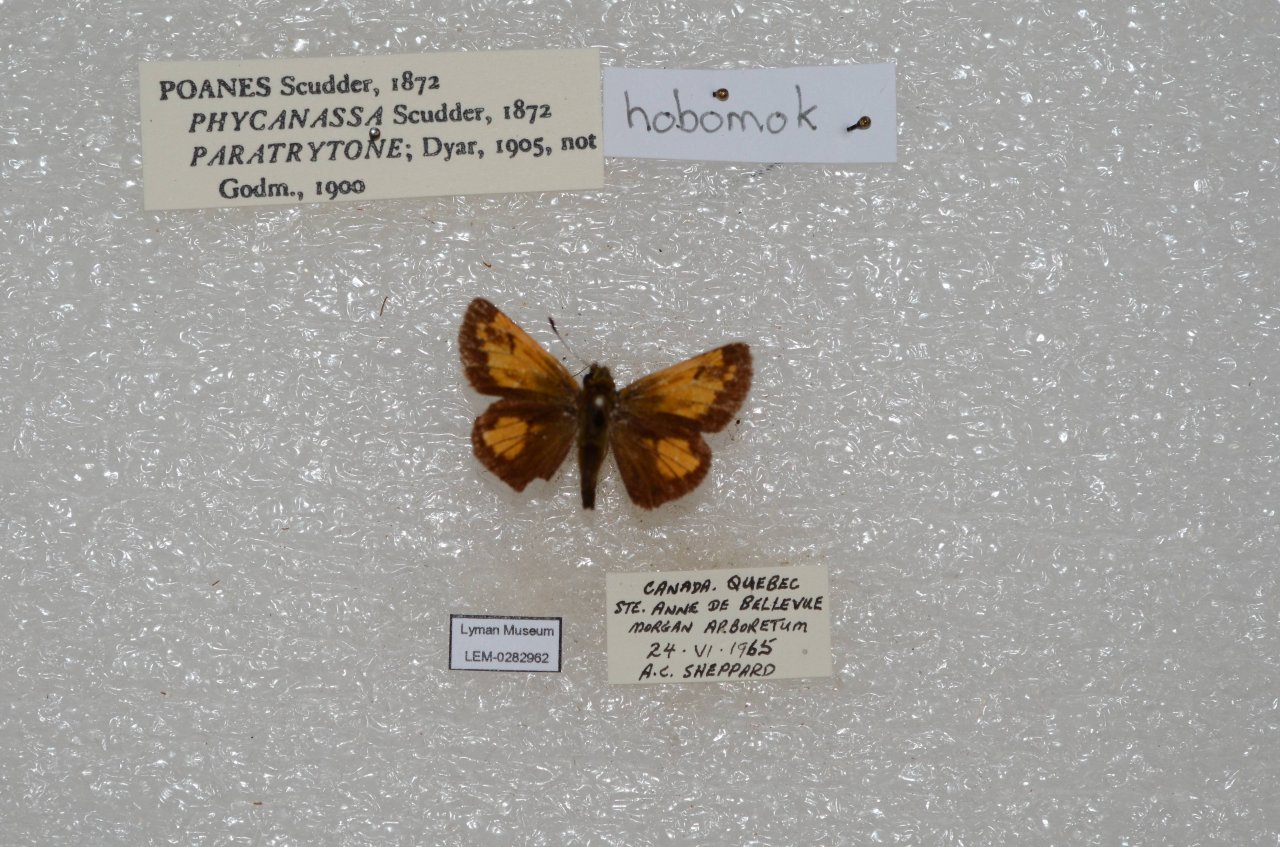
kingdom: Animalia
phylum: Arthropoda
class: Insecta
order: Lepidoptera
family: Hesperiidae
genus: Lon
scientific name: Lon hobomok
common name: Hobomok Skipper
